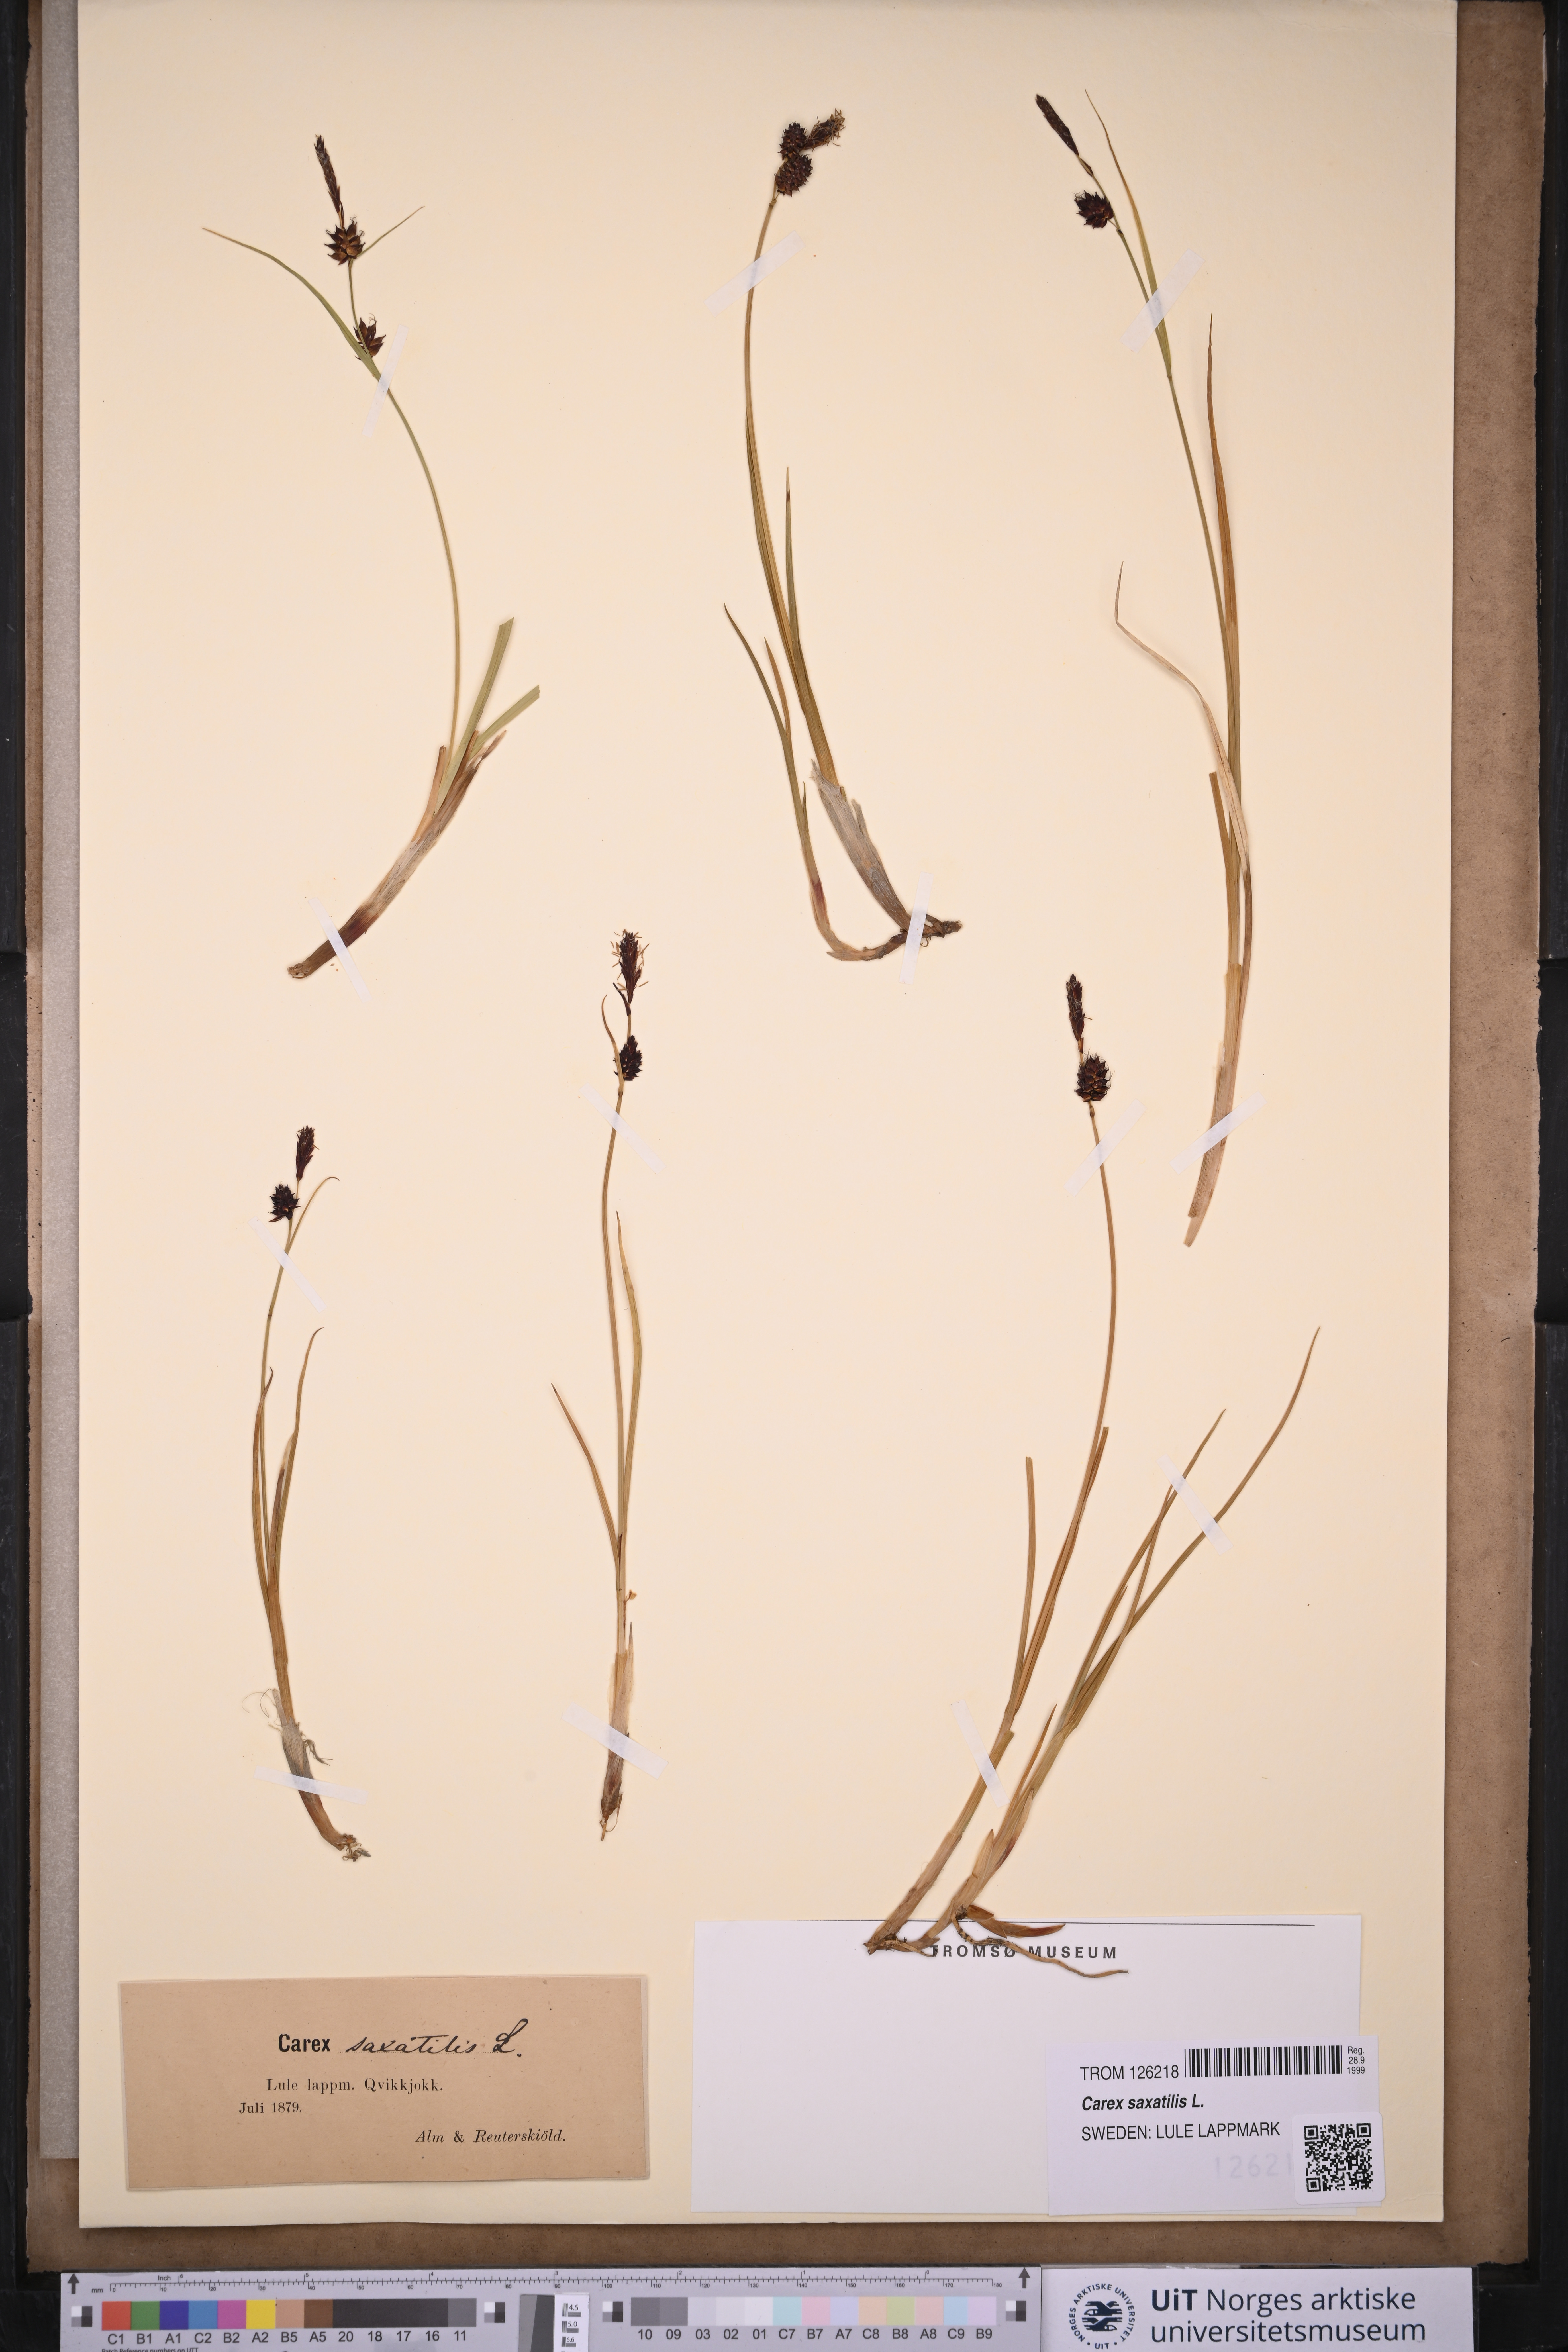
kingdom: Plantae
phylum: Tracheophyta
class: Liliopsida
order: Poales
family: Cyperaceae
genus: Carex
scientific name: Carex saxatilis
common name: Russet sedge
